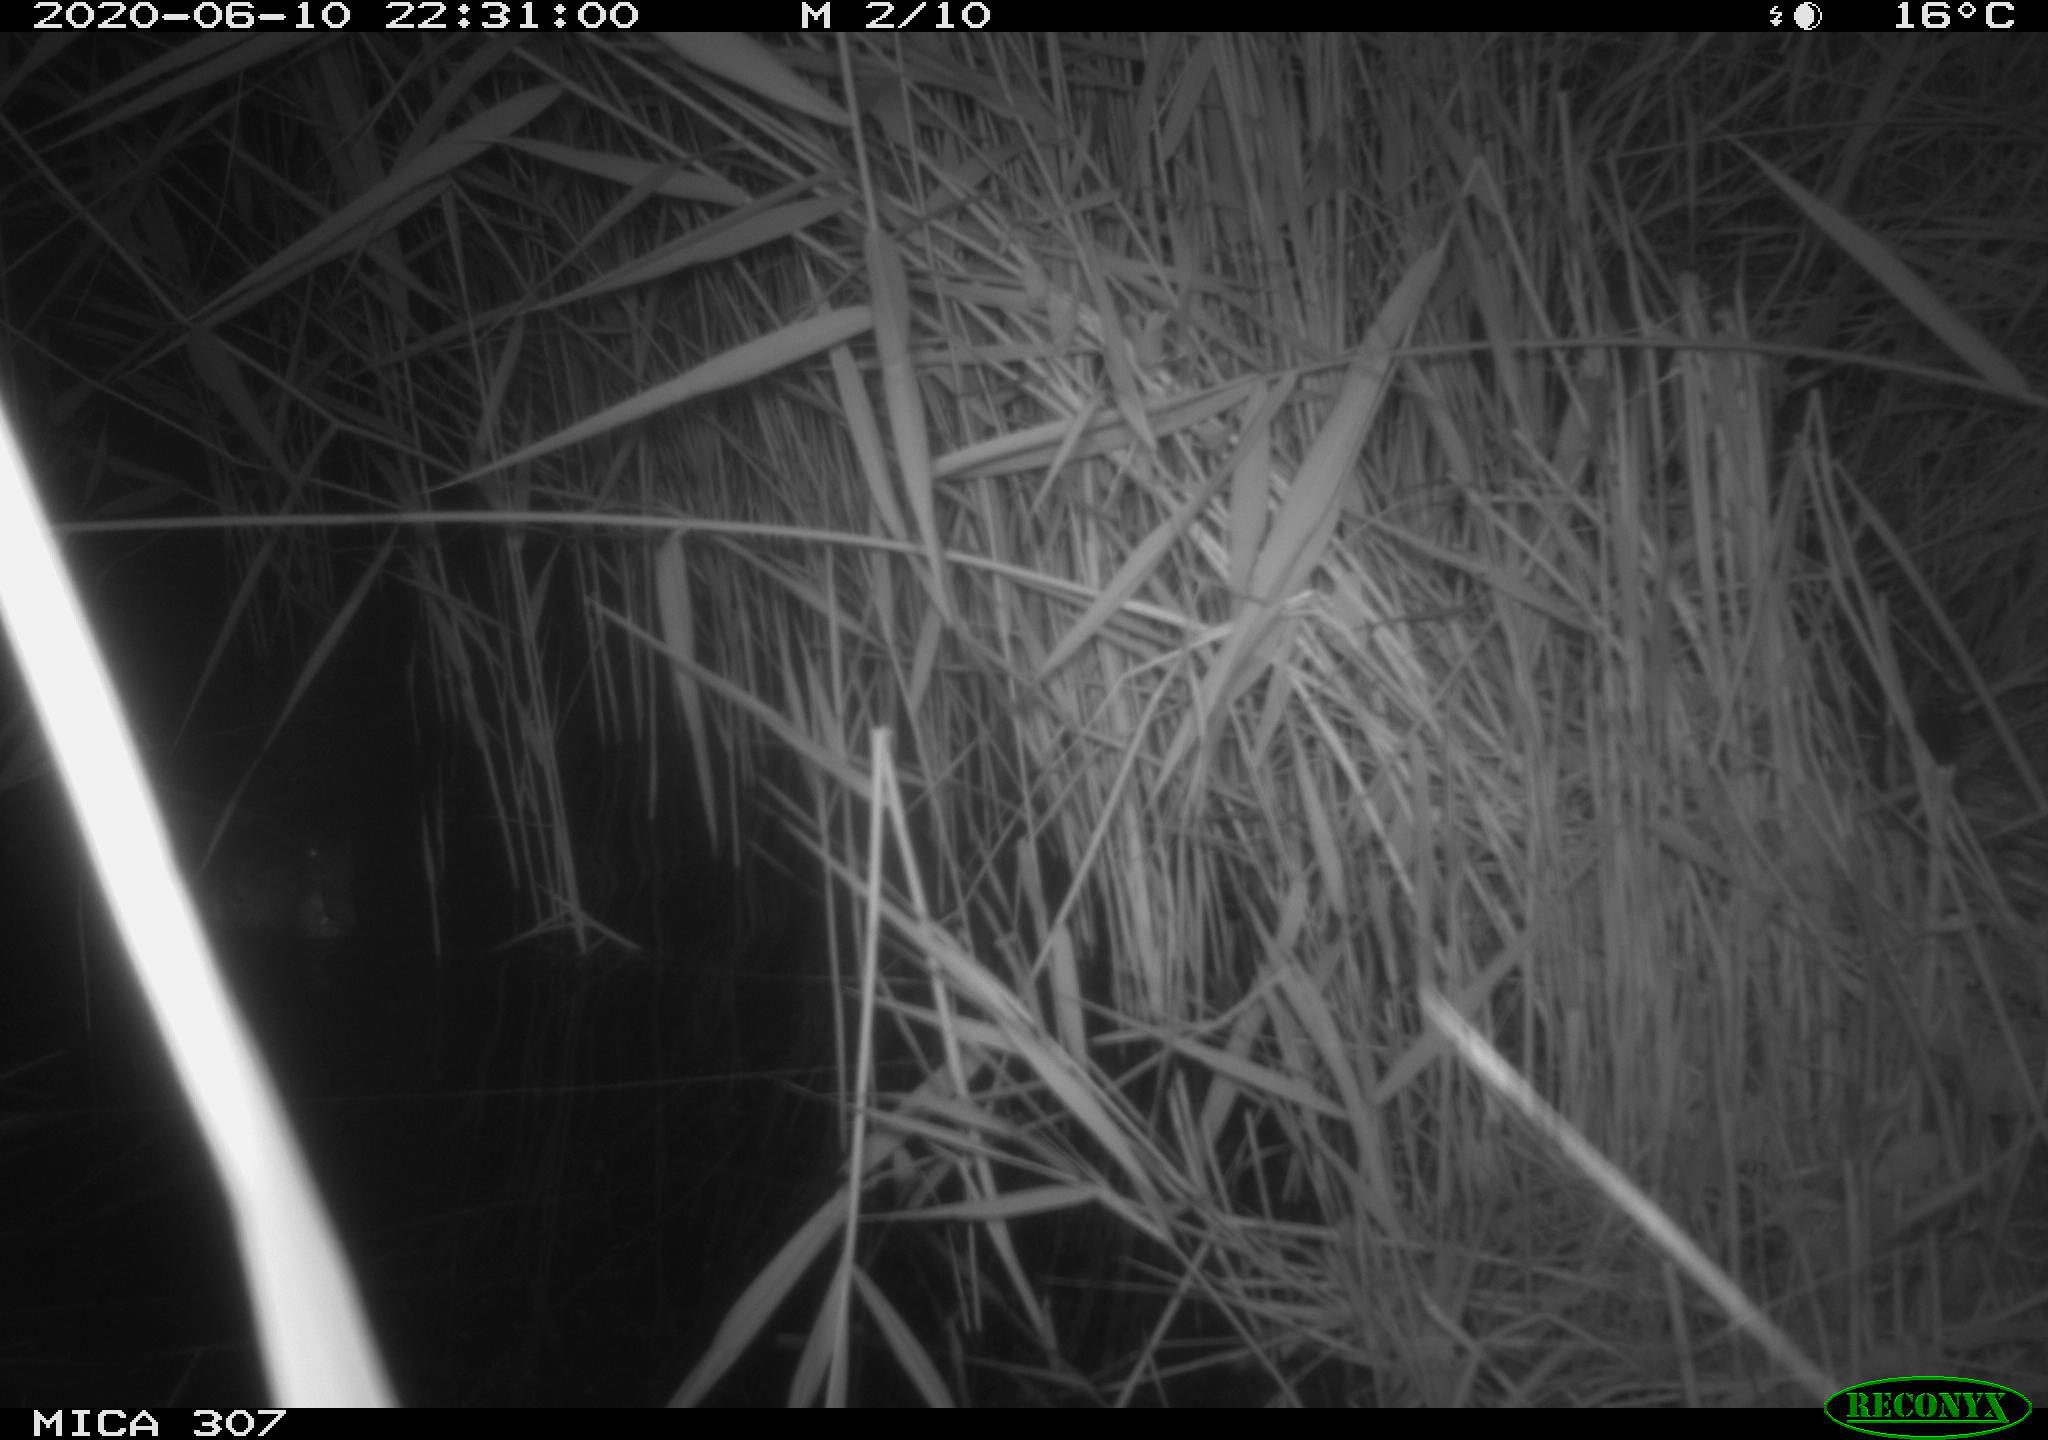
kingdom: Animalia
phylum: Chordata
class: Aves
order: Anseriformes
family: Anatidae
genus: Anas
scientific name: Anas platyrhynchos
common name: Mallard
